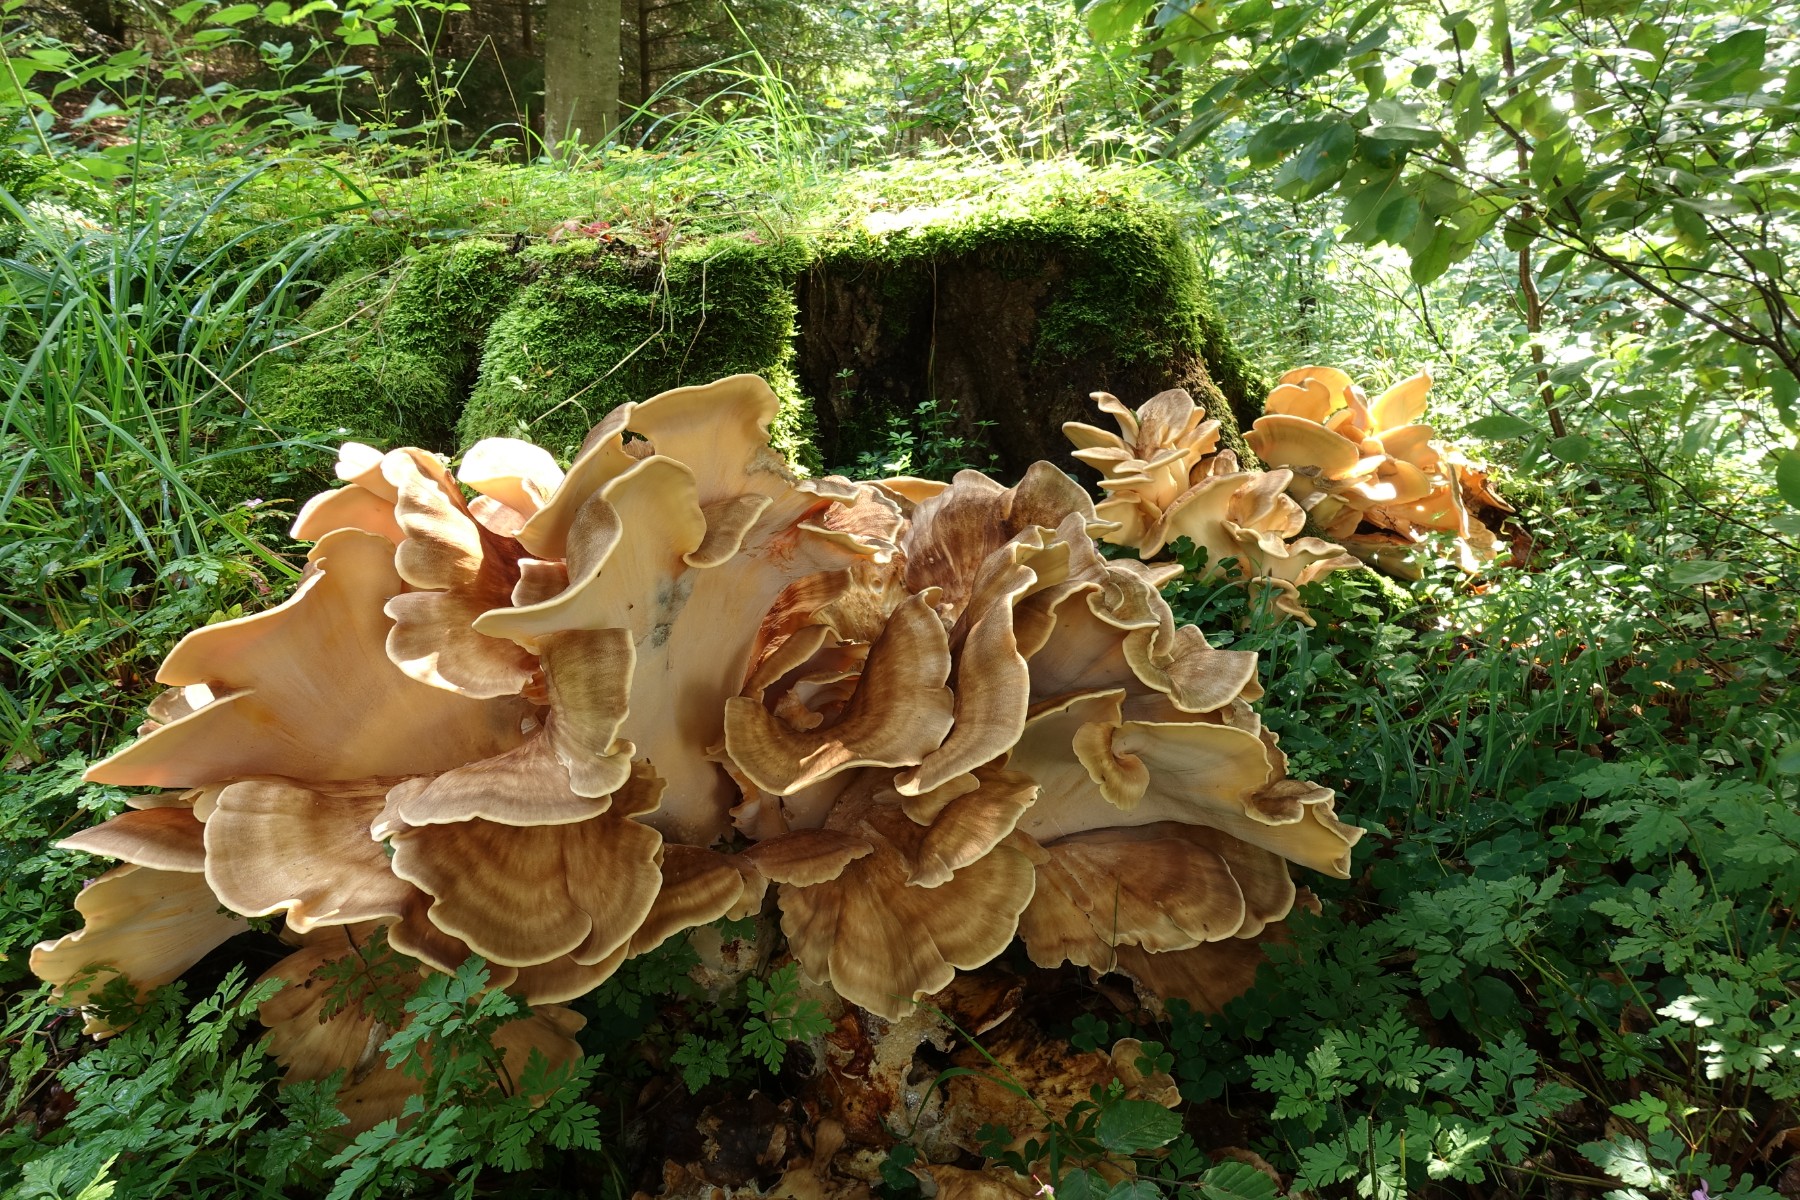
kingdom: Fungi
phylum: Basidiomycota
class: Agaricomycetes
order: Polyporales
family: Meripilaceae
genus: Meripilus
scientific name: Meripilus giganteus
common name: kæmpeporesvamp
